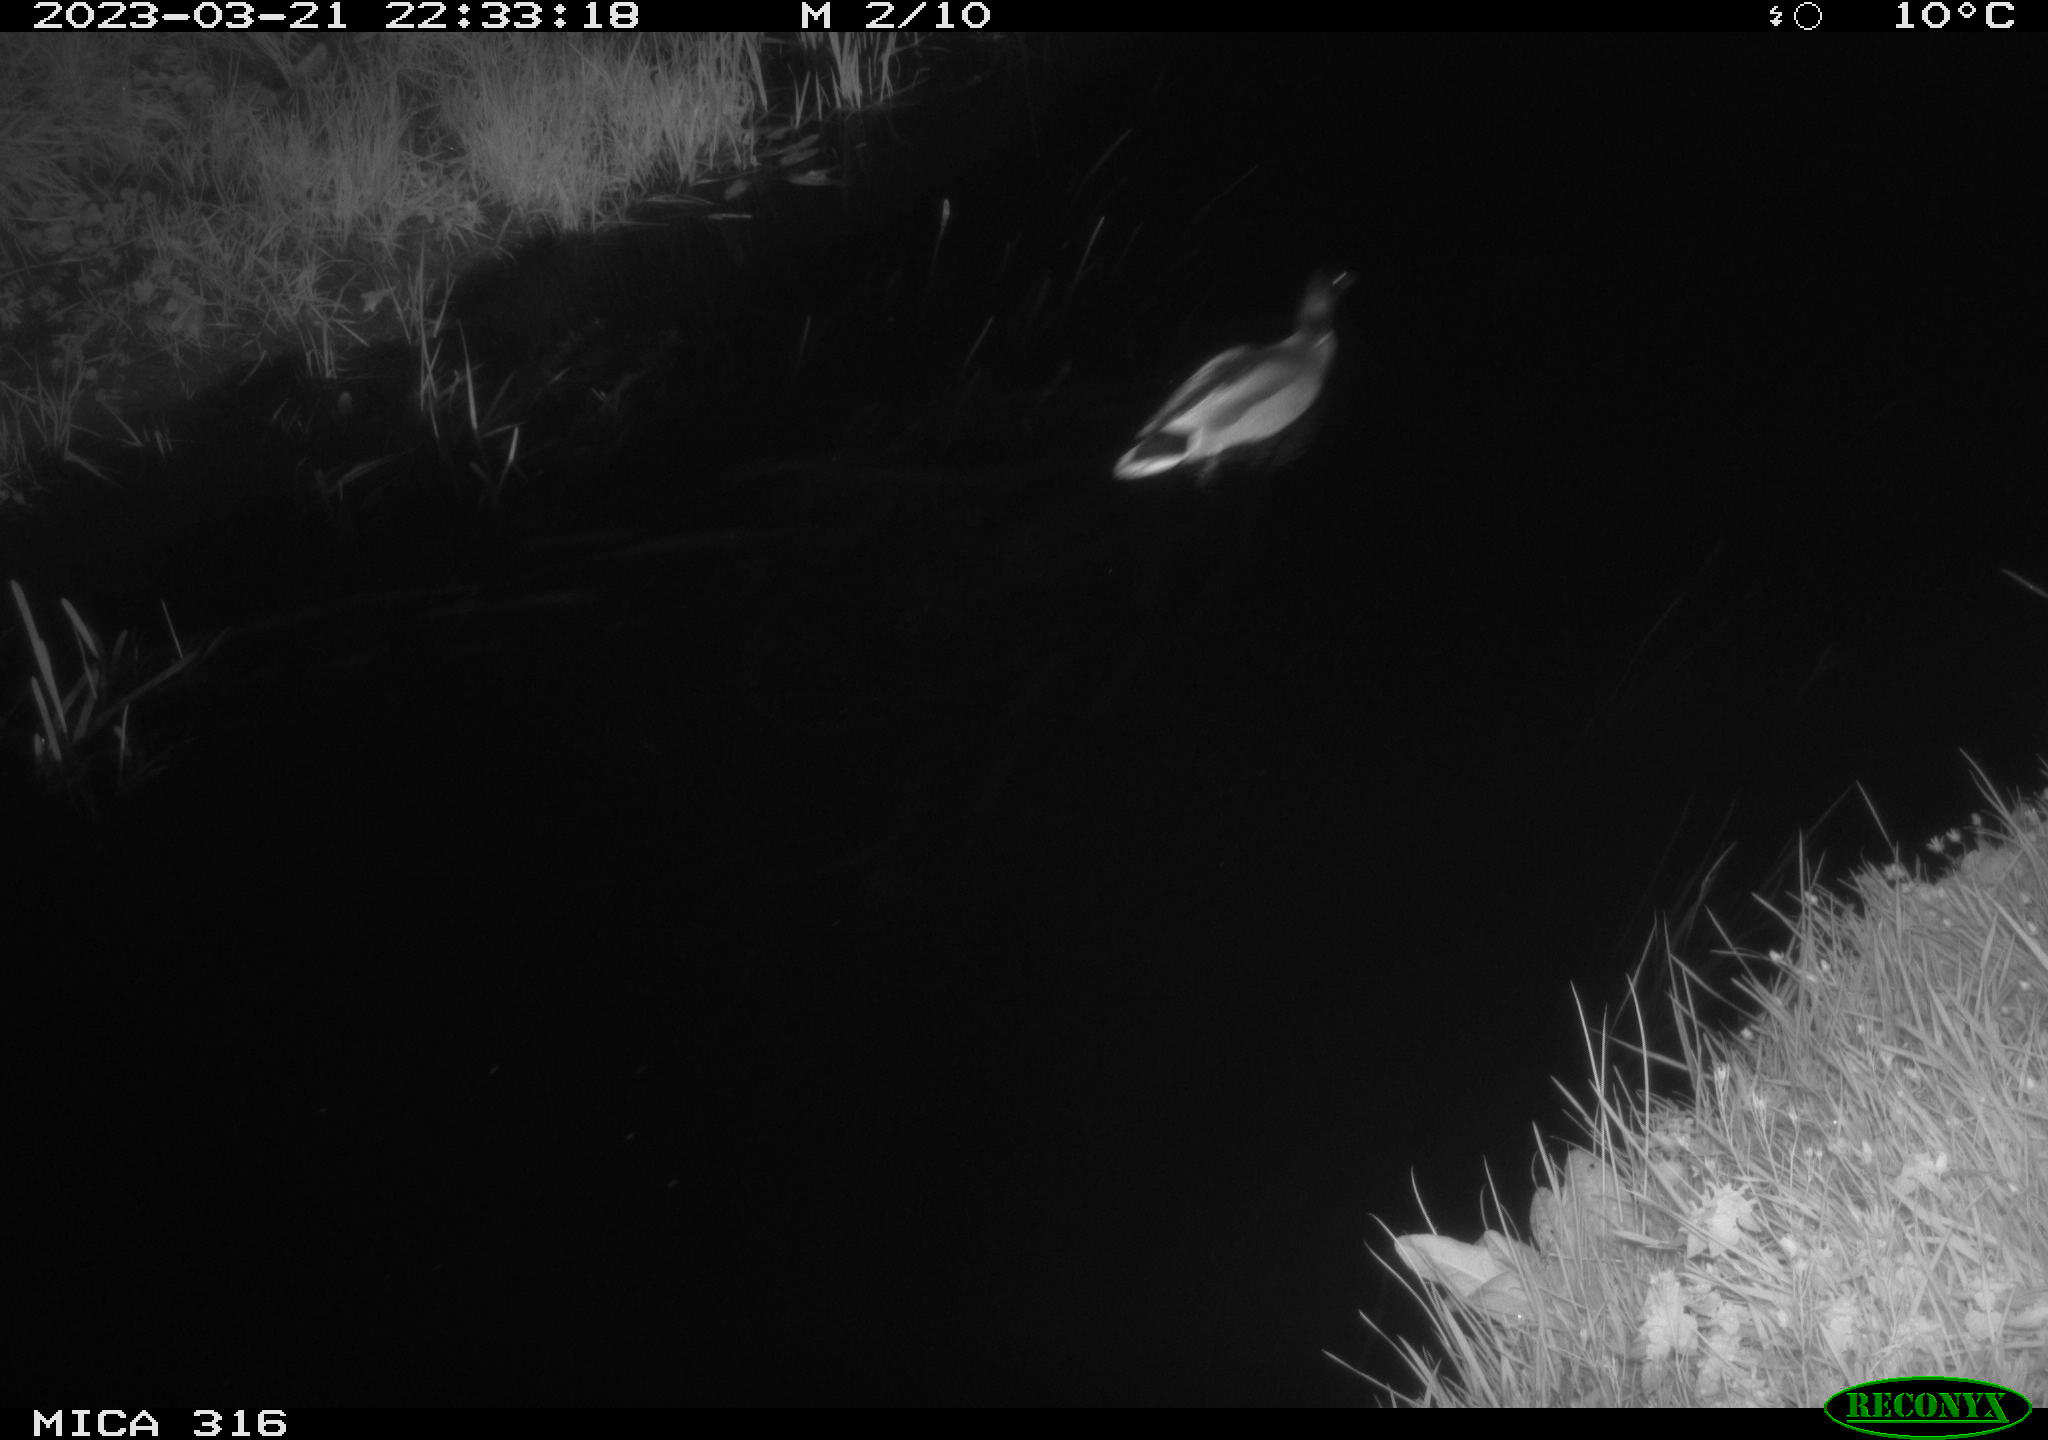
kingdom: Animalia
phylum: Chordata
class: Aves
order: Anseriformes
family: Anatidae
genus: Anas
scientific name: Anas
